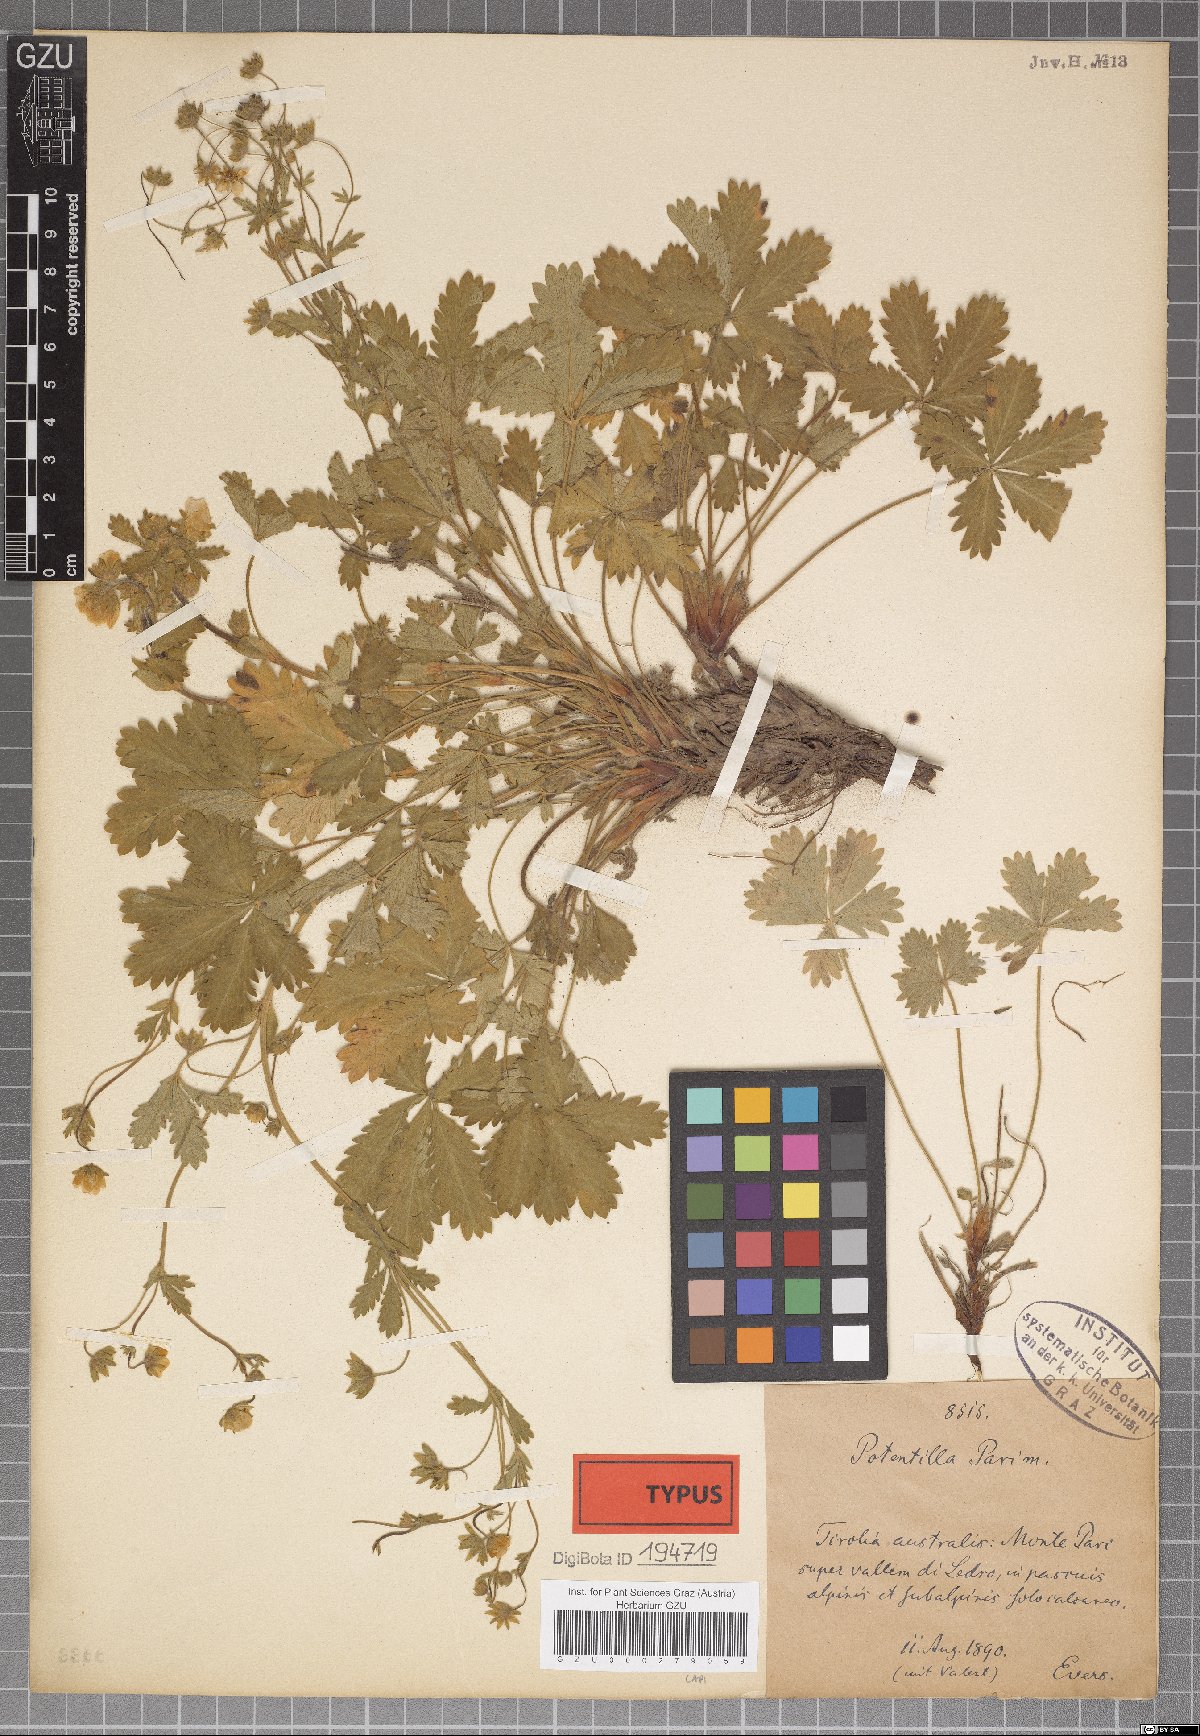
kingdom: Plantae
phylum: Tracheophyta
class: Magnoliopsida
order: Rosales
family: Rosaceae
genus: Potentilla
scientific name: Potentilla pusilla
